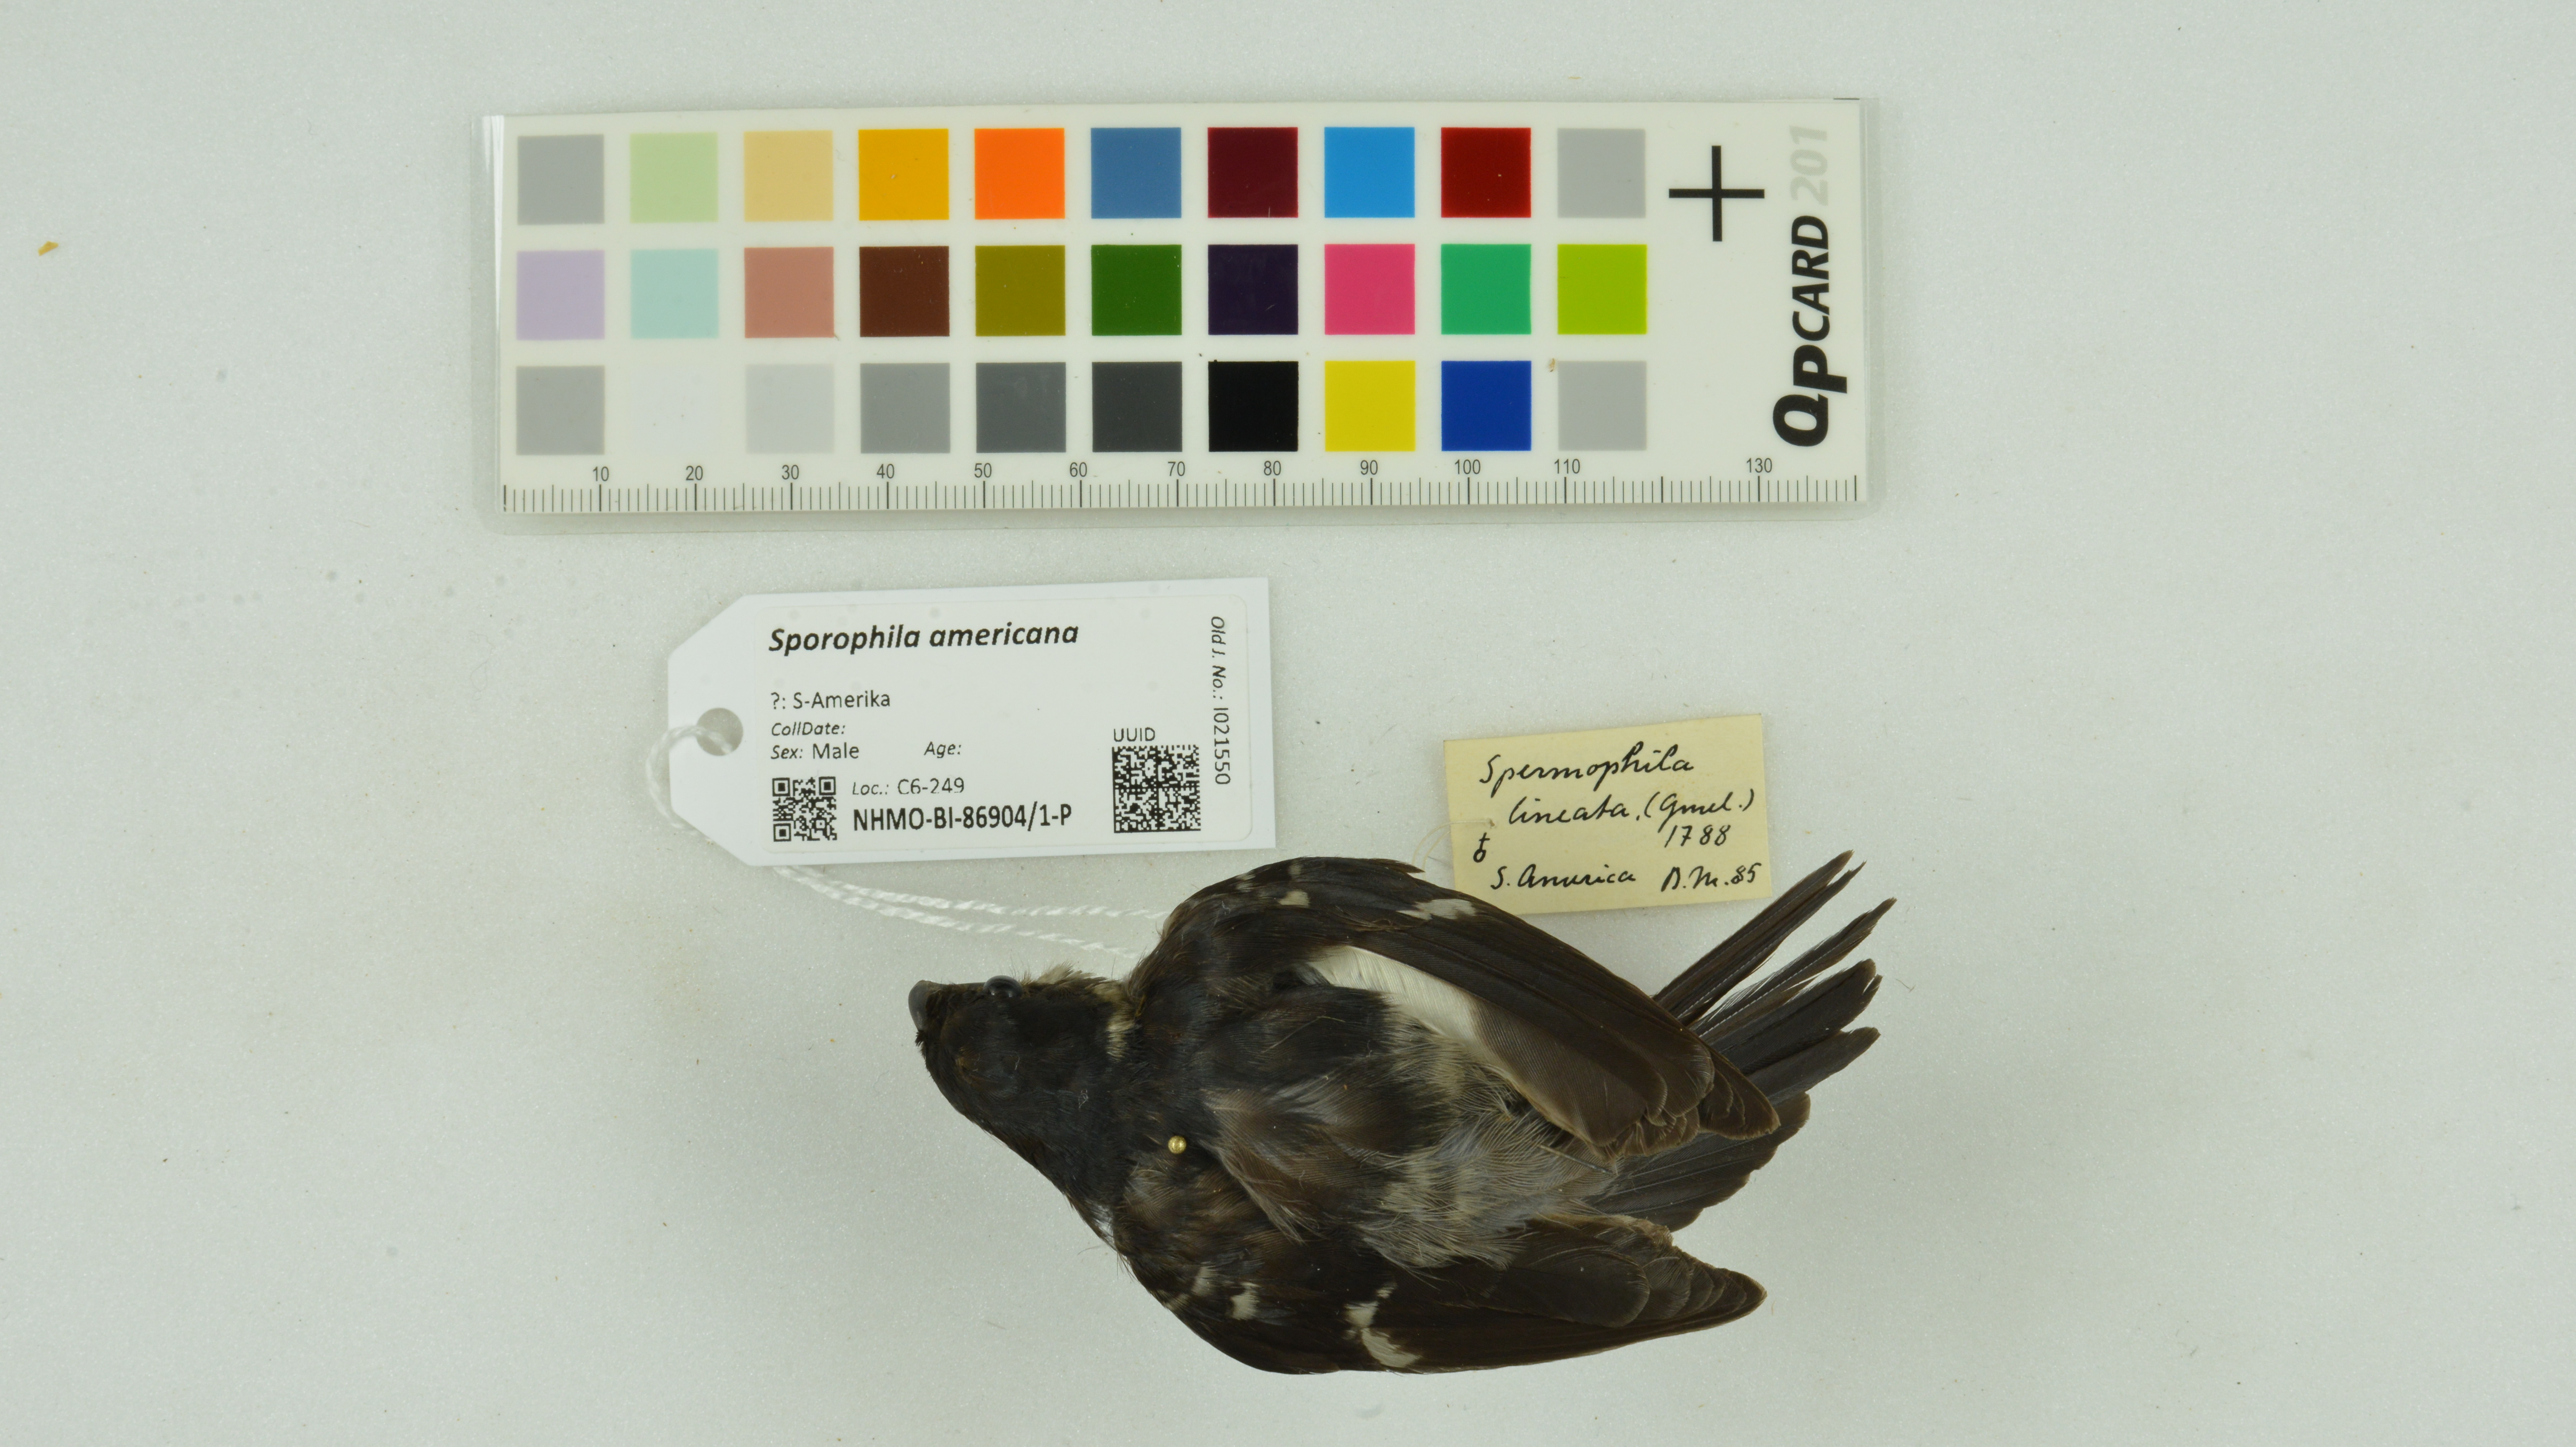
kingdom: Animalia
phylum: Chordata
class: Aves
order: Passeriformes
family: Thraupidae
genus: Sporophila
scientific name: Sporophila americana
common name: Wing-barred seedeater
